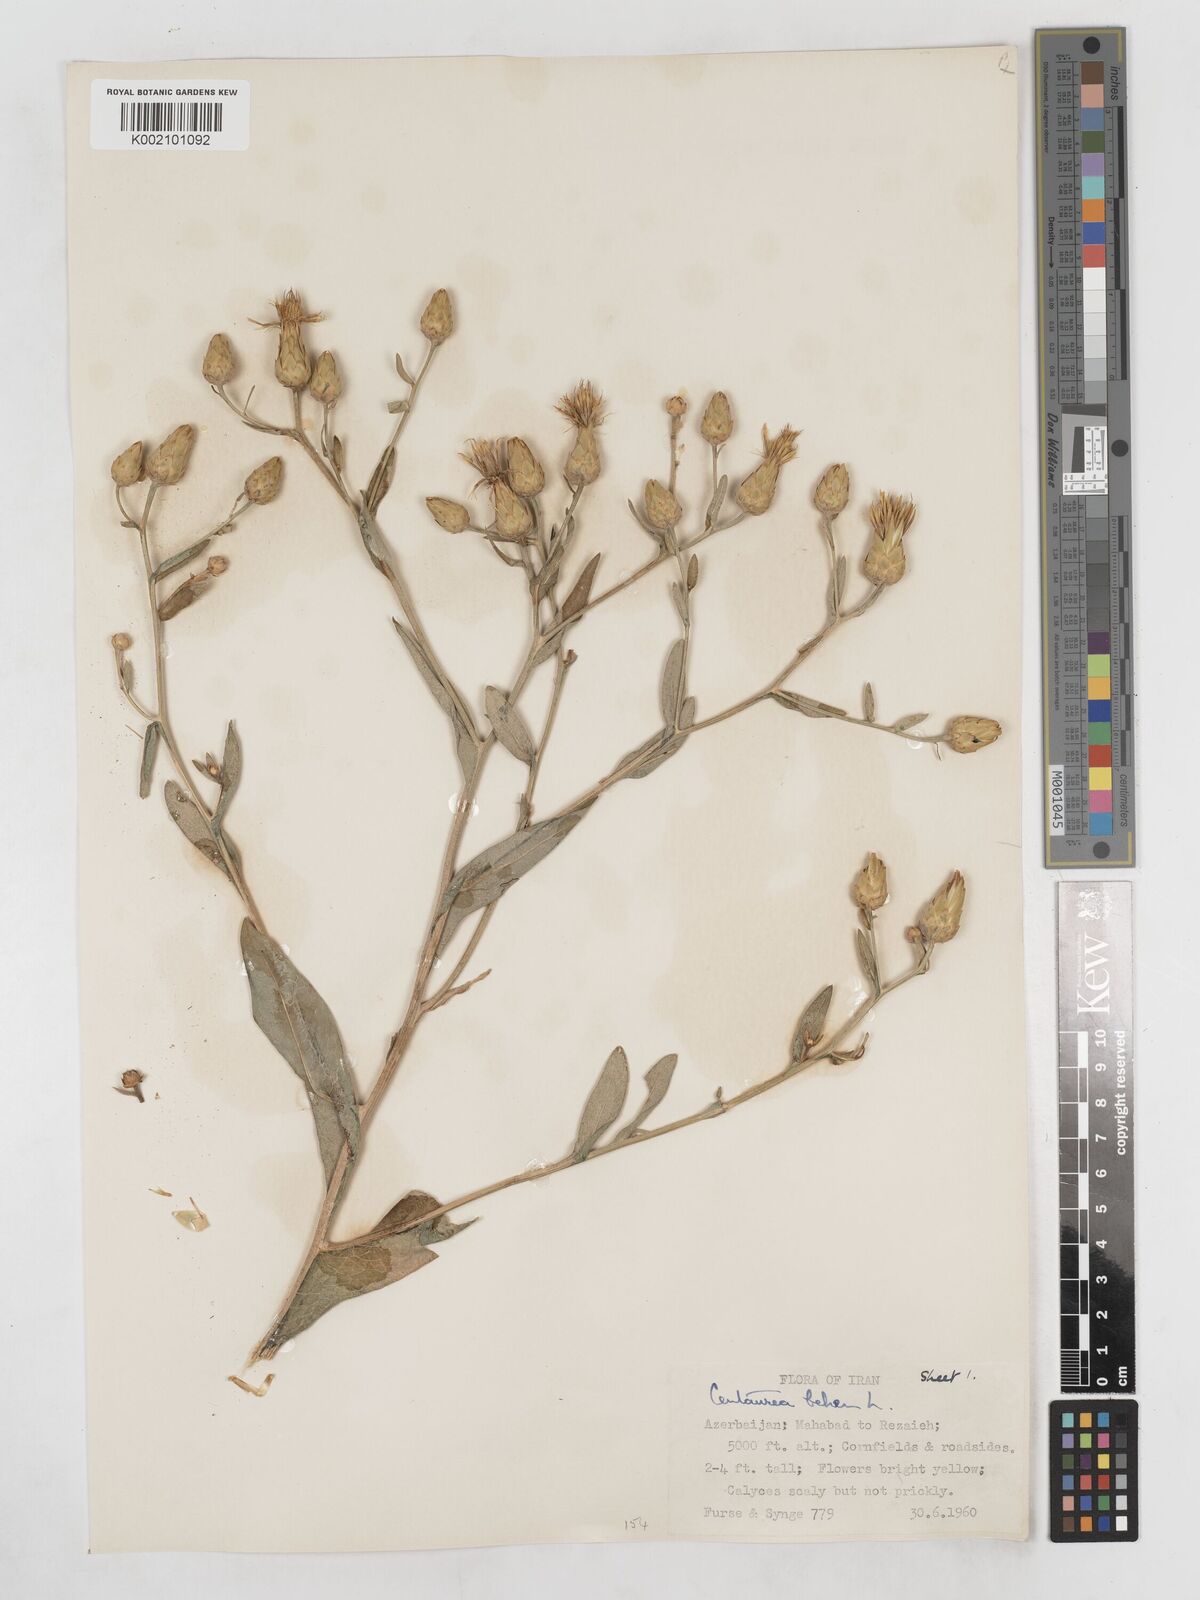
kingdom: Plantae
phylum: Tracheophyta
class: Magnoliopsida
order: Asterales
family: Asteraceae
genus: Centaurea
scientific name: Centaurea behen
